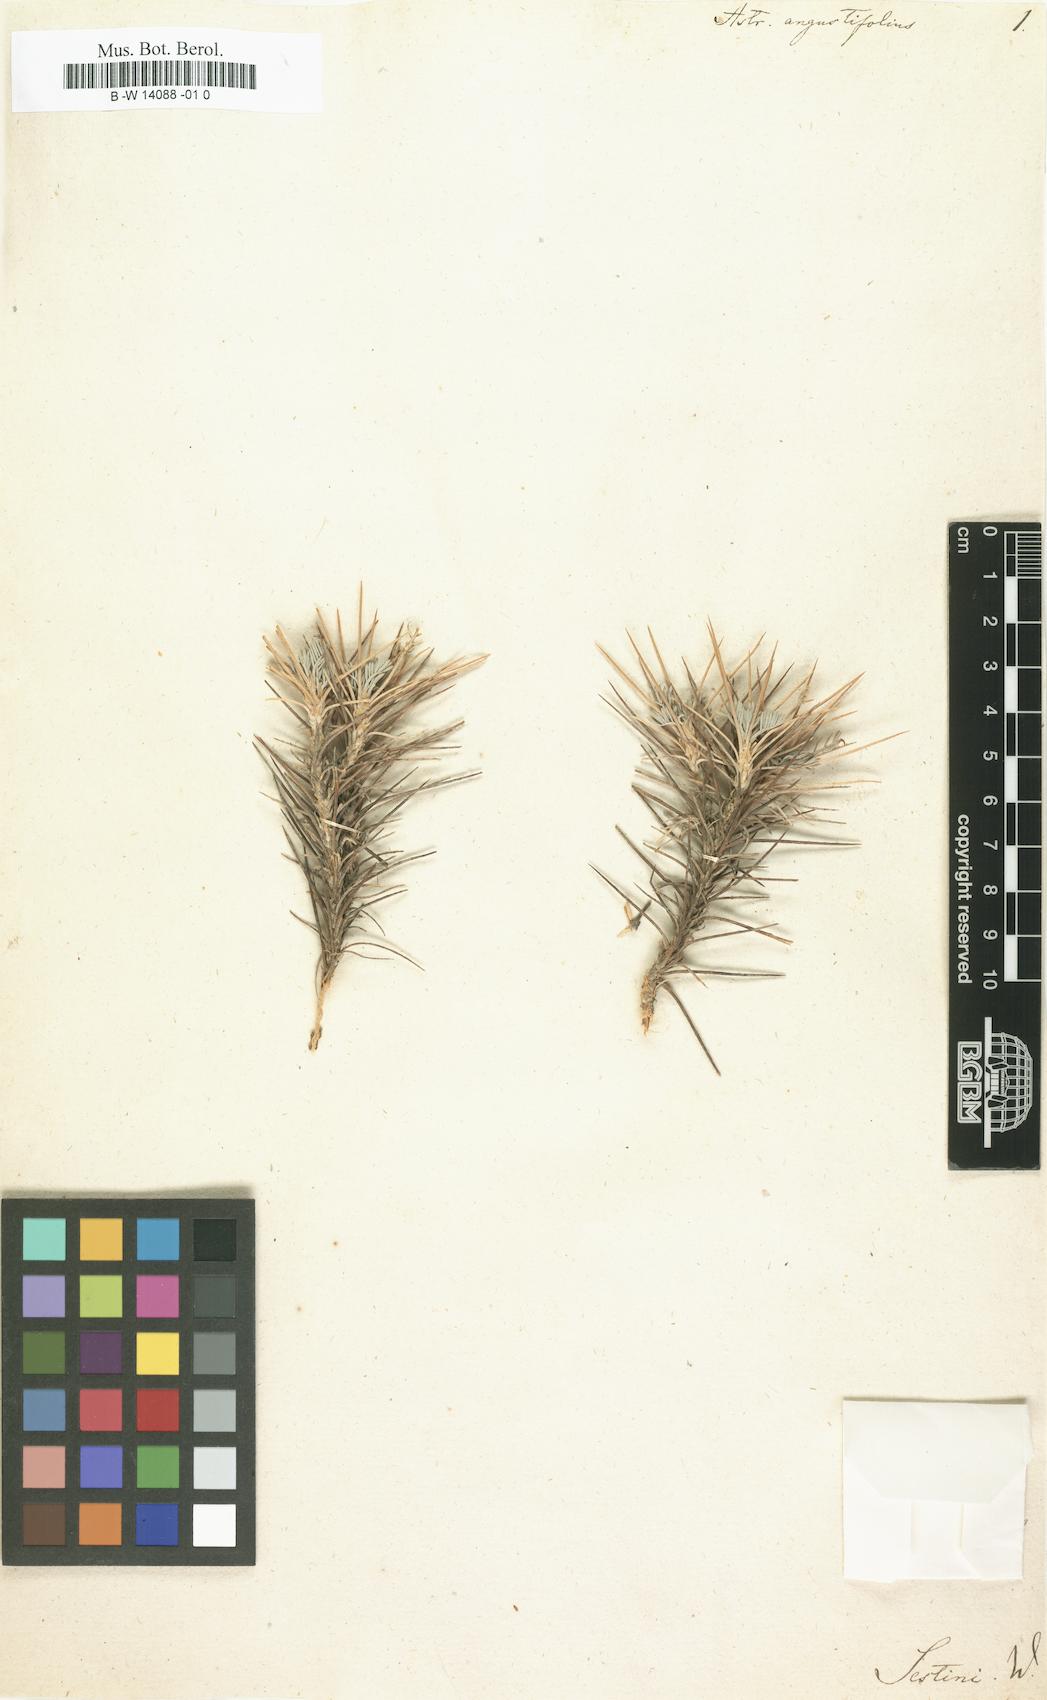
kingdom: Plantae
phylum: Tracheophyta
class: Magnoliopsida
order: Fabales
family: Fabaceae
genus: Astragalus
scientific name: Astragalus angustifolius
